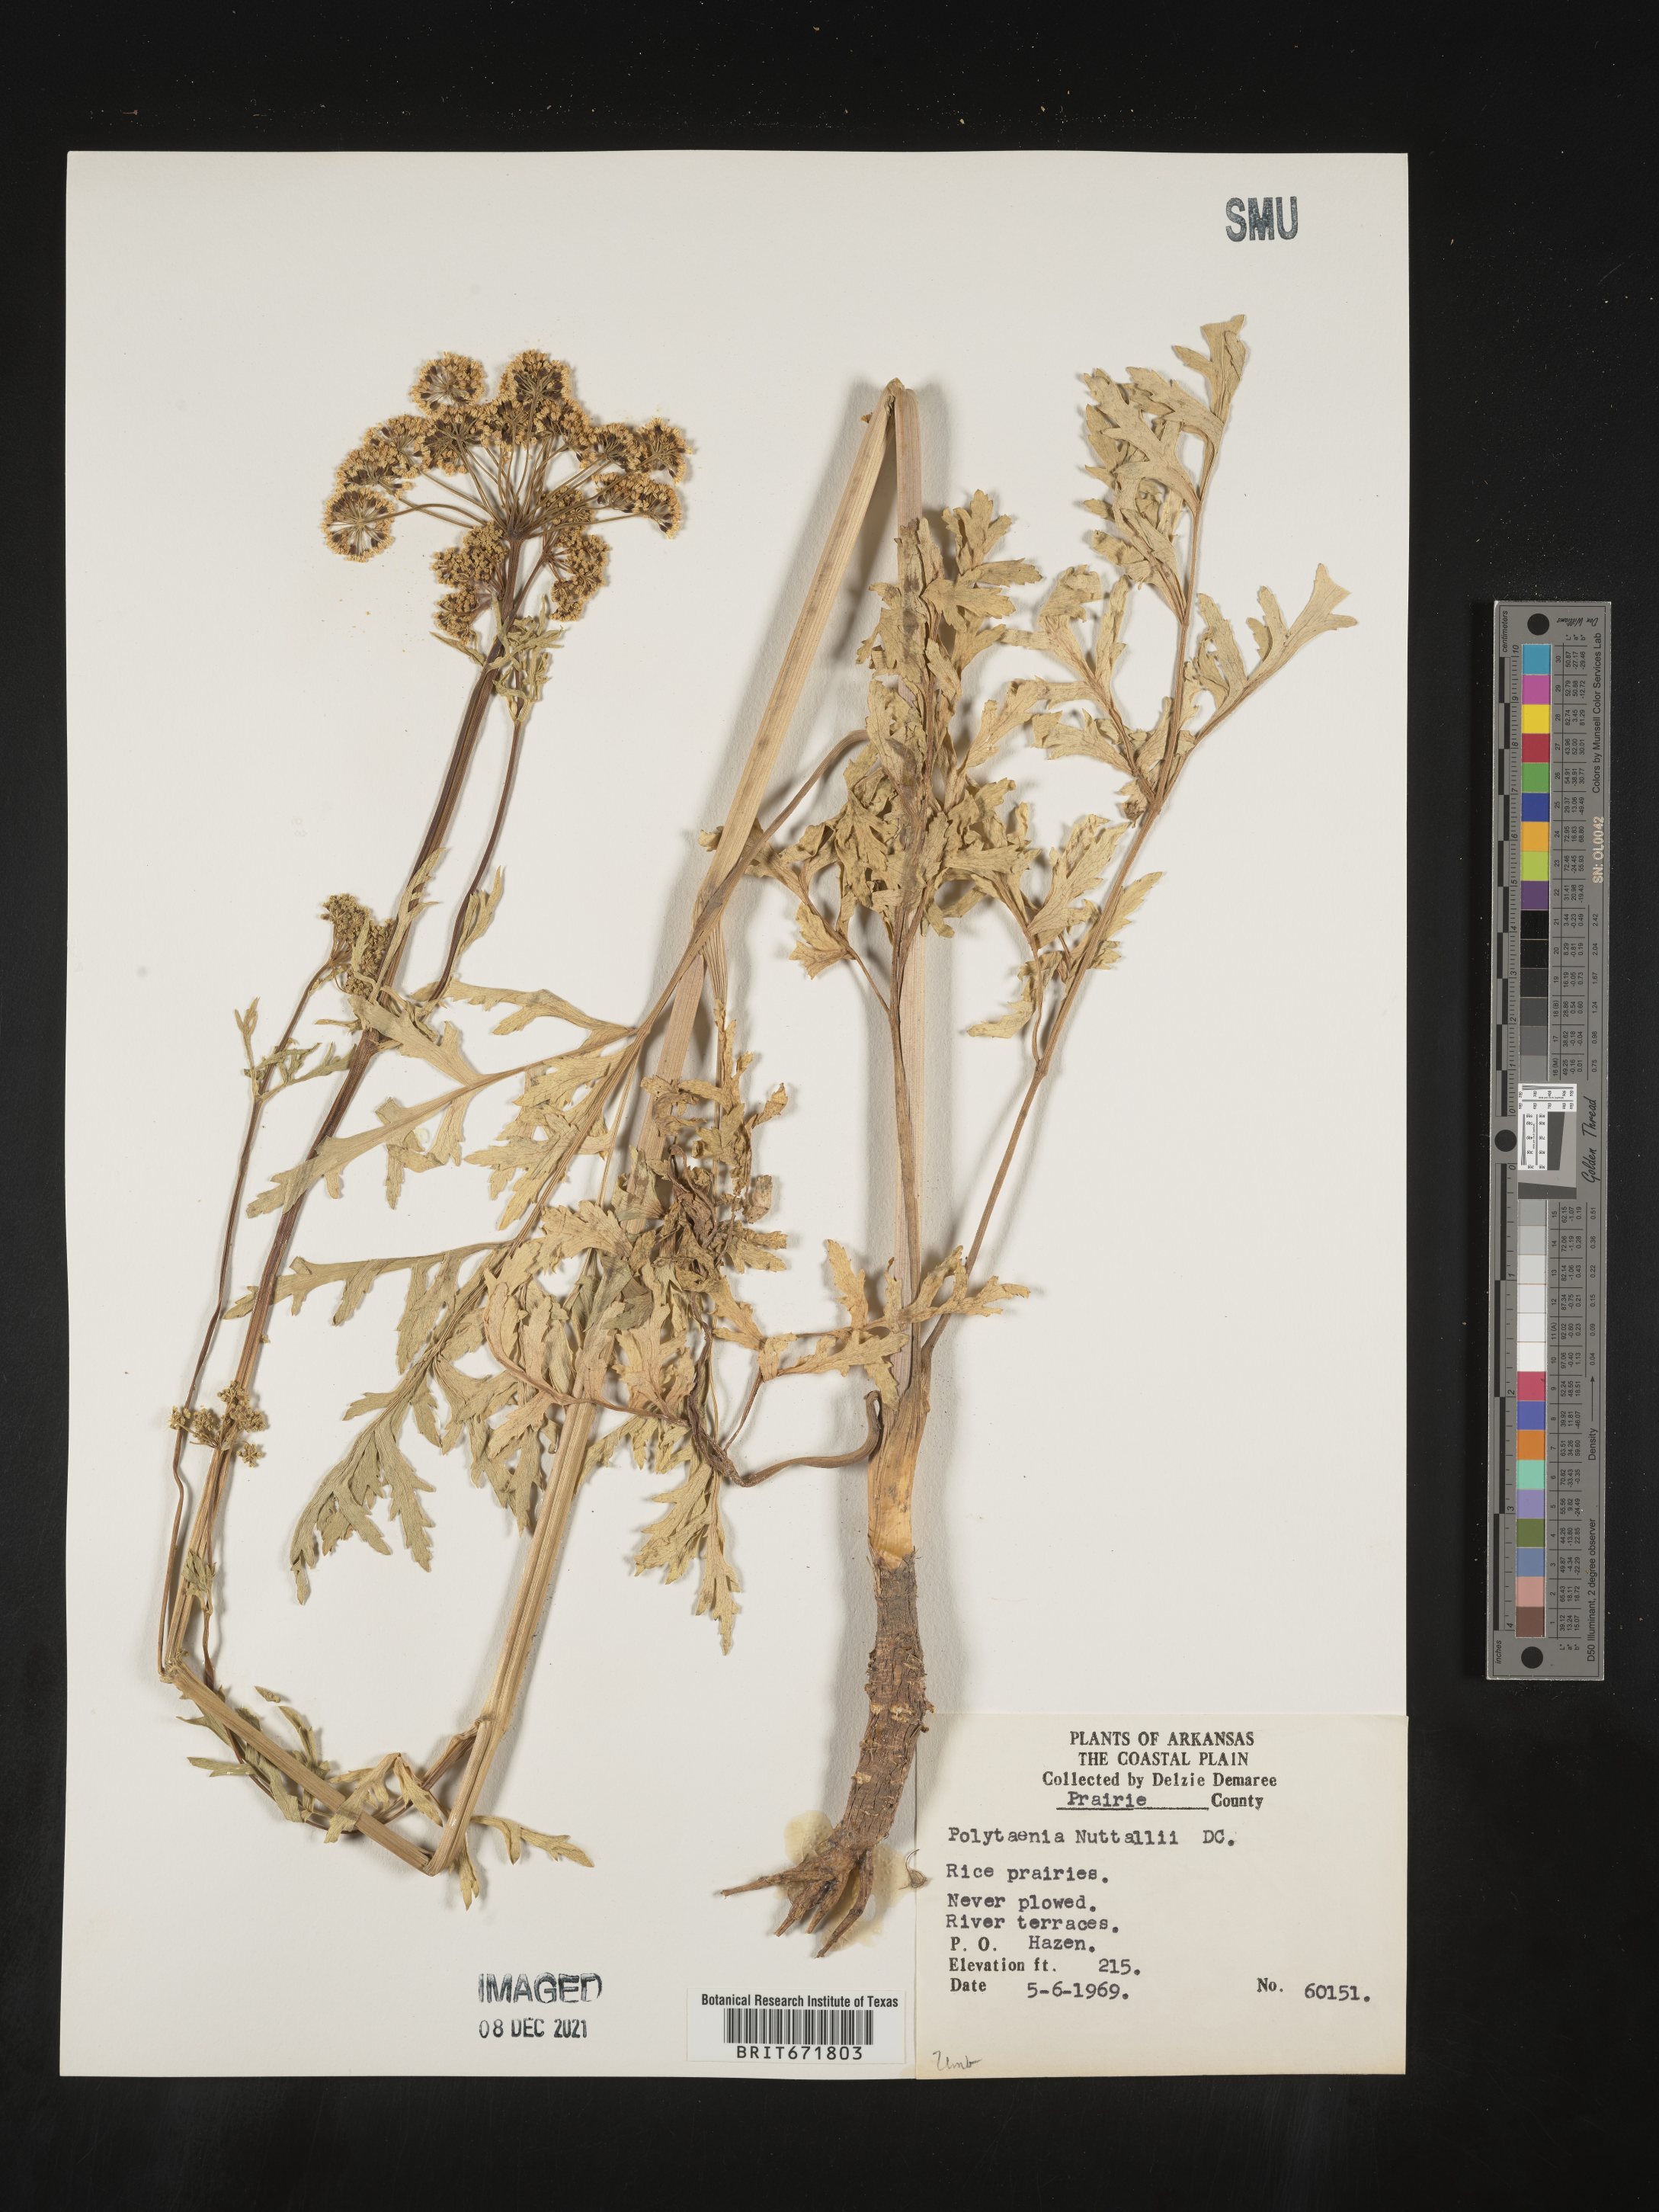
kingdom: Plantae
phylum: Tracheophyta
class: Magnoliopsida
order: Apiales
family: Apiaceae
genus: Polytaenia
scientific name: Polytaenia nuttallii
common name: Prairie-parsley
